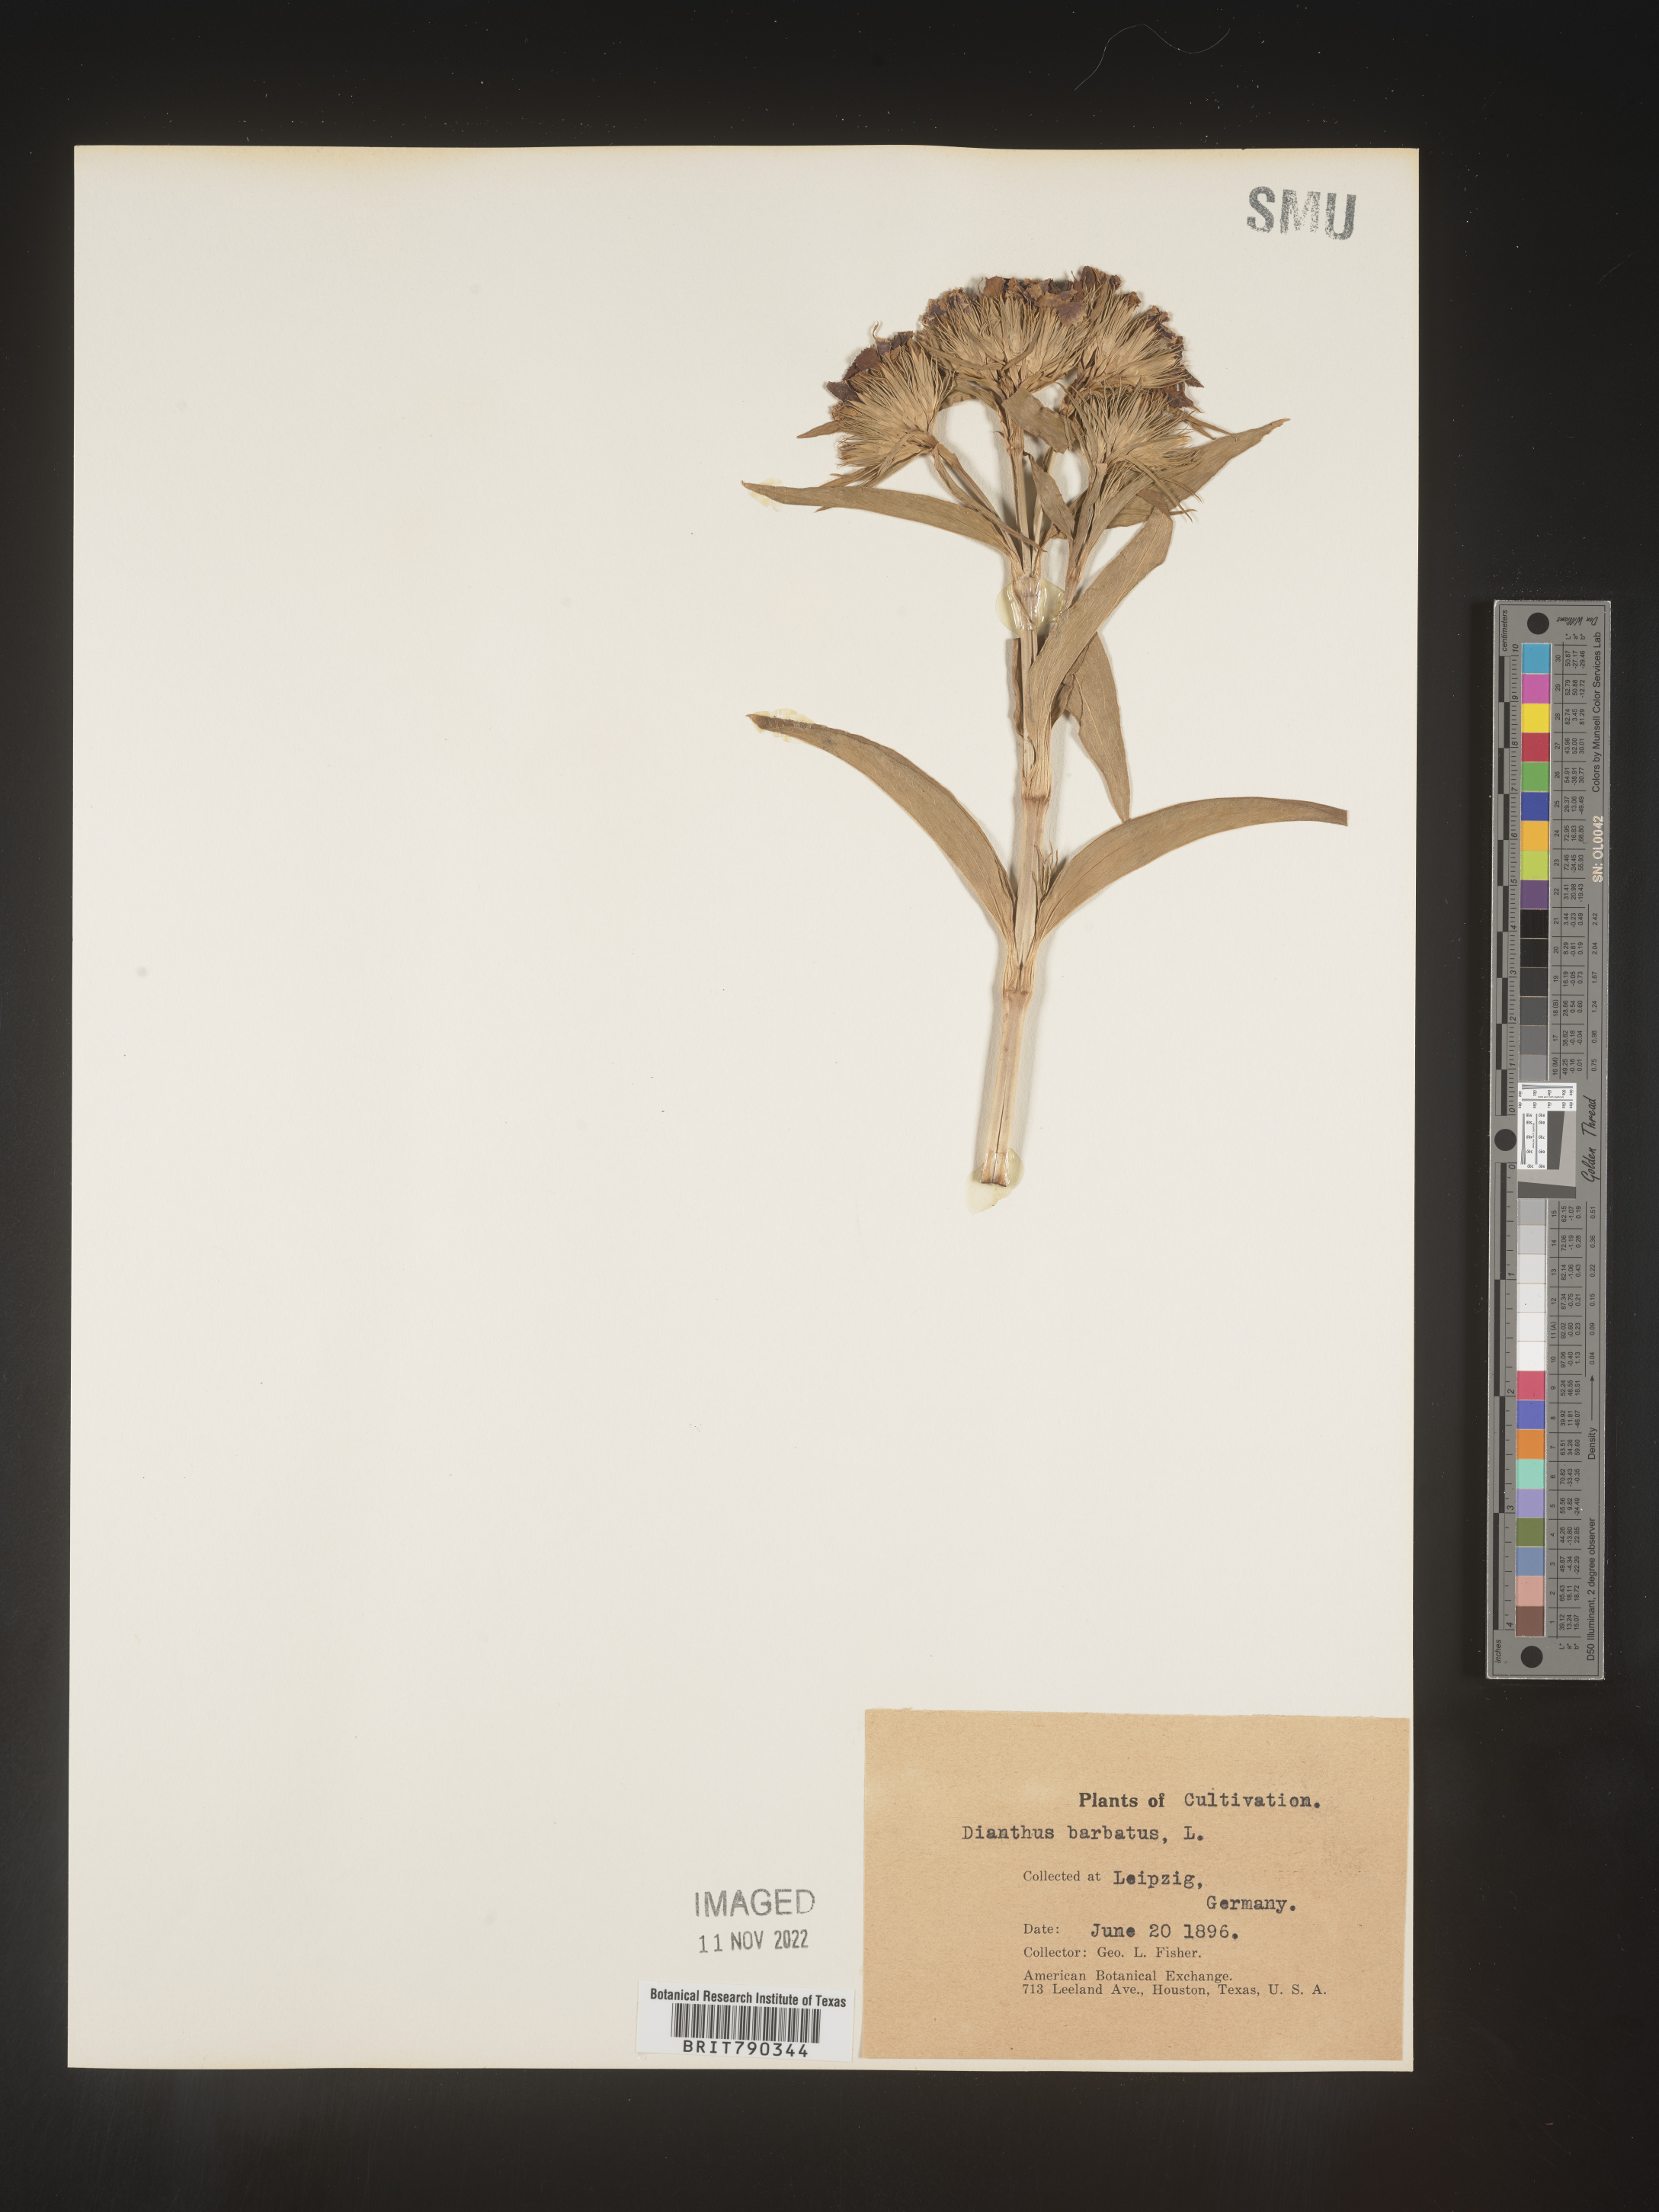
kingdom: Plantae
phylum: Tracheophyta
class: Magnoliopsida
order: Caryophyllales
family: Caryophyllaceae
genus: Dianthus
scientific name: Dianthus
